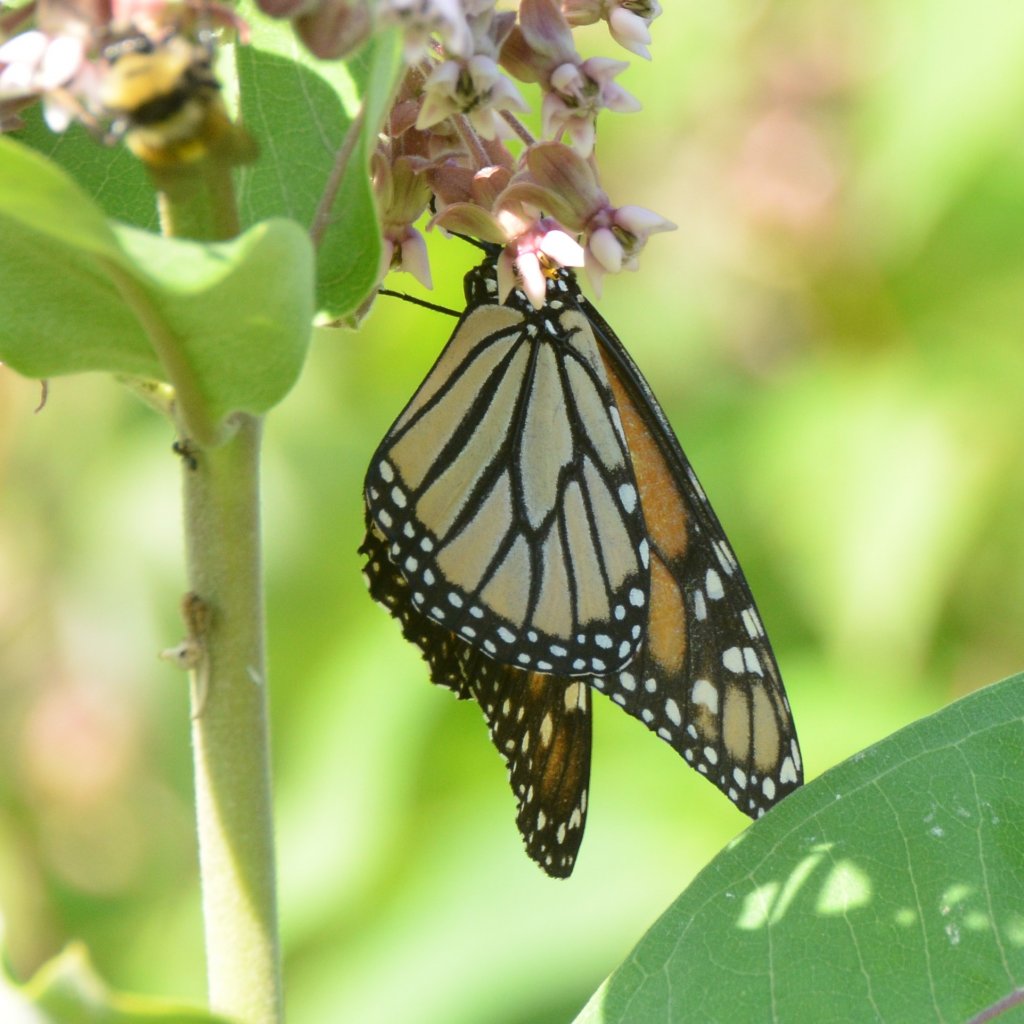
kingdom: Animalia
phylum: Arthropoda
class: Insecta
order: Lepidoptera
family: Nymphalidae
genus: Danaus
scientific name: Danaus plexippus
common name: Monarch
